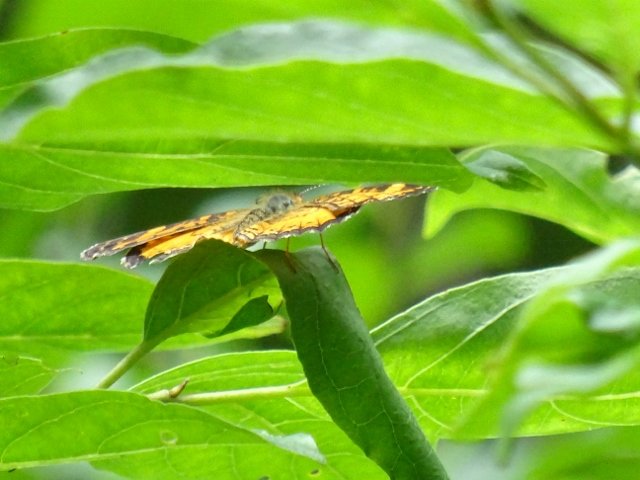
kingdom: Animalia
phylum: Arthropoda
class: Insecta
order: Lepidoptera
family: Nymphalidae
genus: Phyciodes
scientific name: Phyciodes
